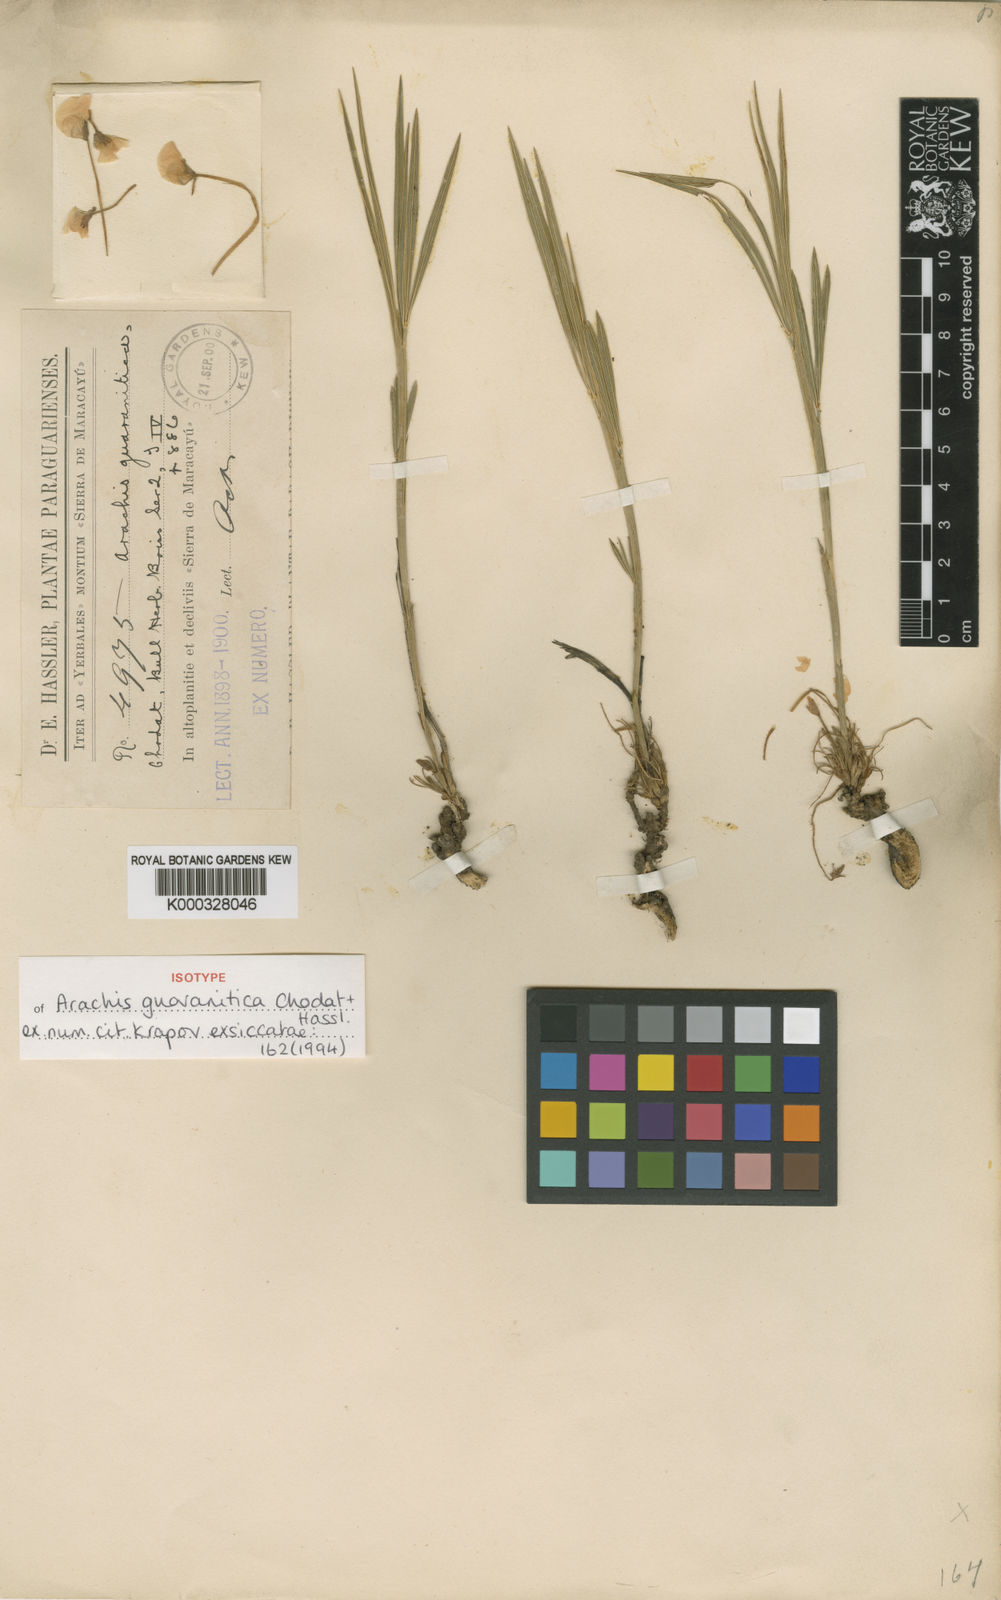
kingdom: Plantae
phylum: Tracheophyta
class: Magnoliopsida
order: Fabales
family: Fabaceae
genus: Arachis
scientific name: Arachis guaranitica
